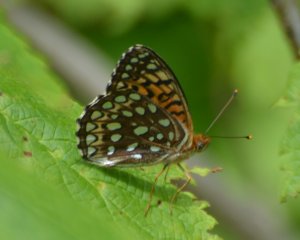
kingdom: Animalia
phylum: Arthropoda
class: Insecta
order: Lepidoptera
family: Nymphalidae
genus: Speyeria
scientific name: Speyeria atlantis
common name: Atlantis Fritillary
